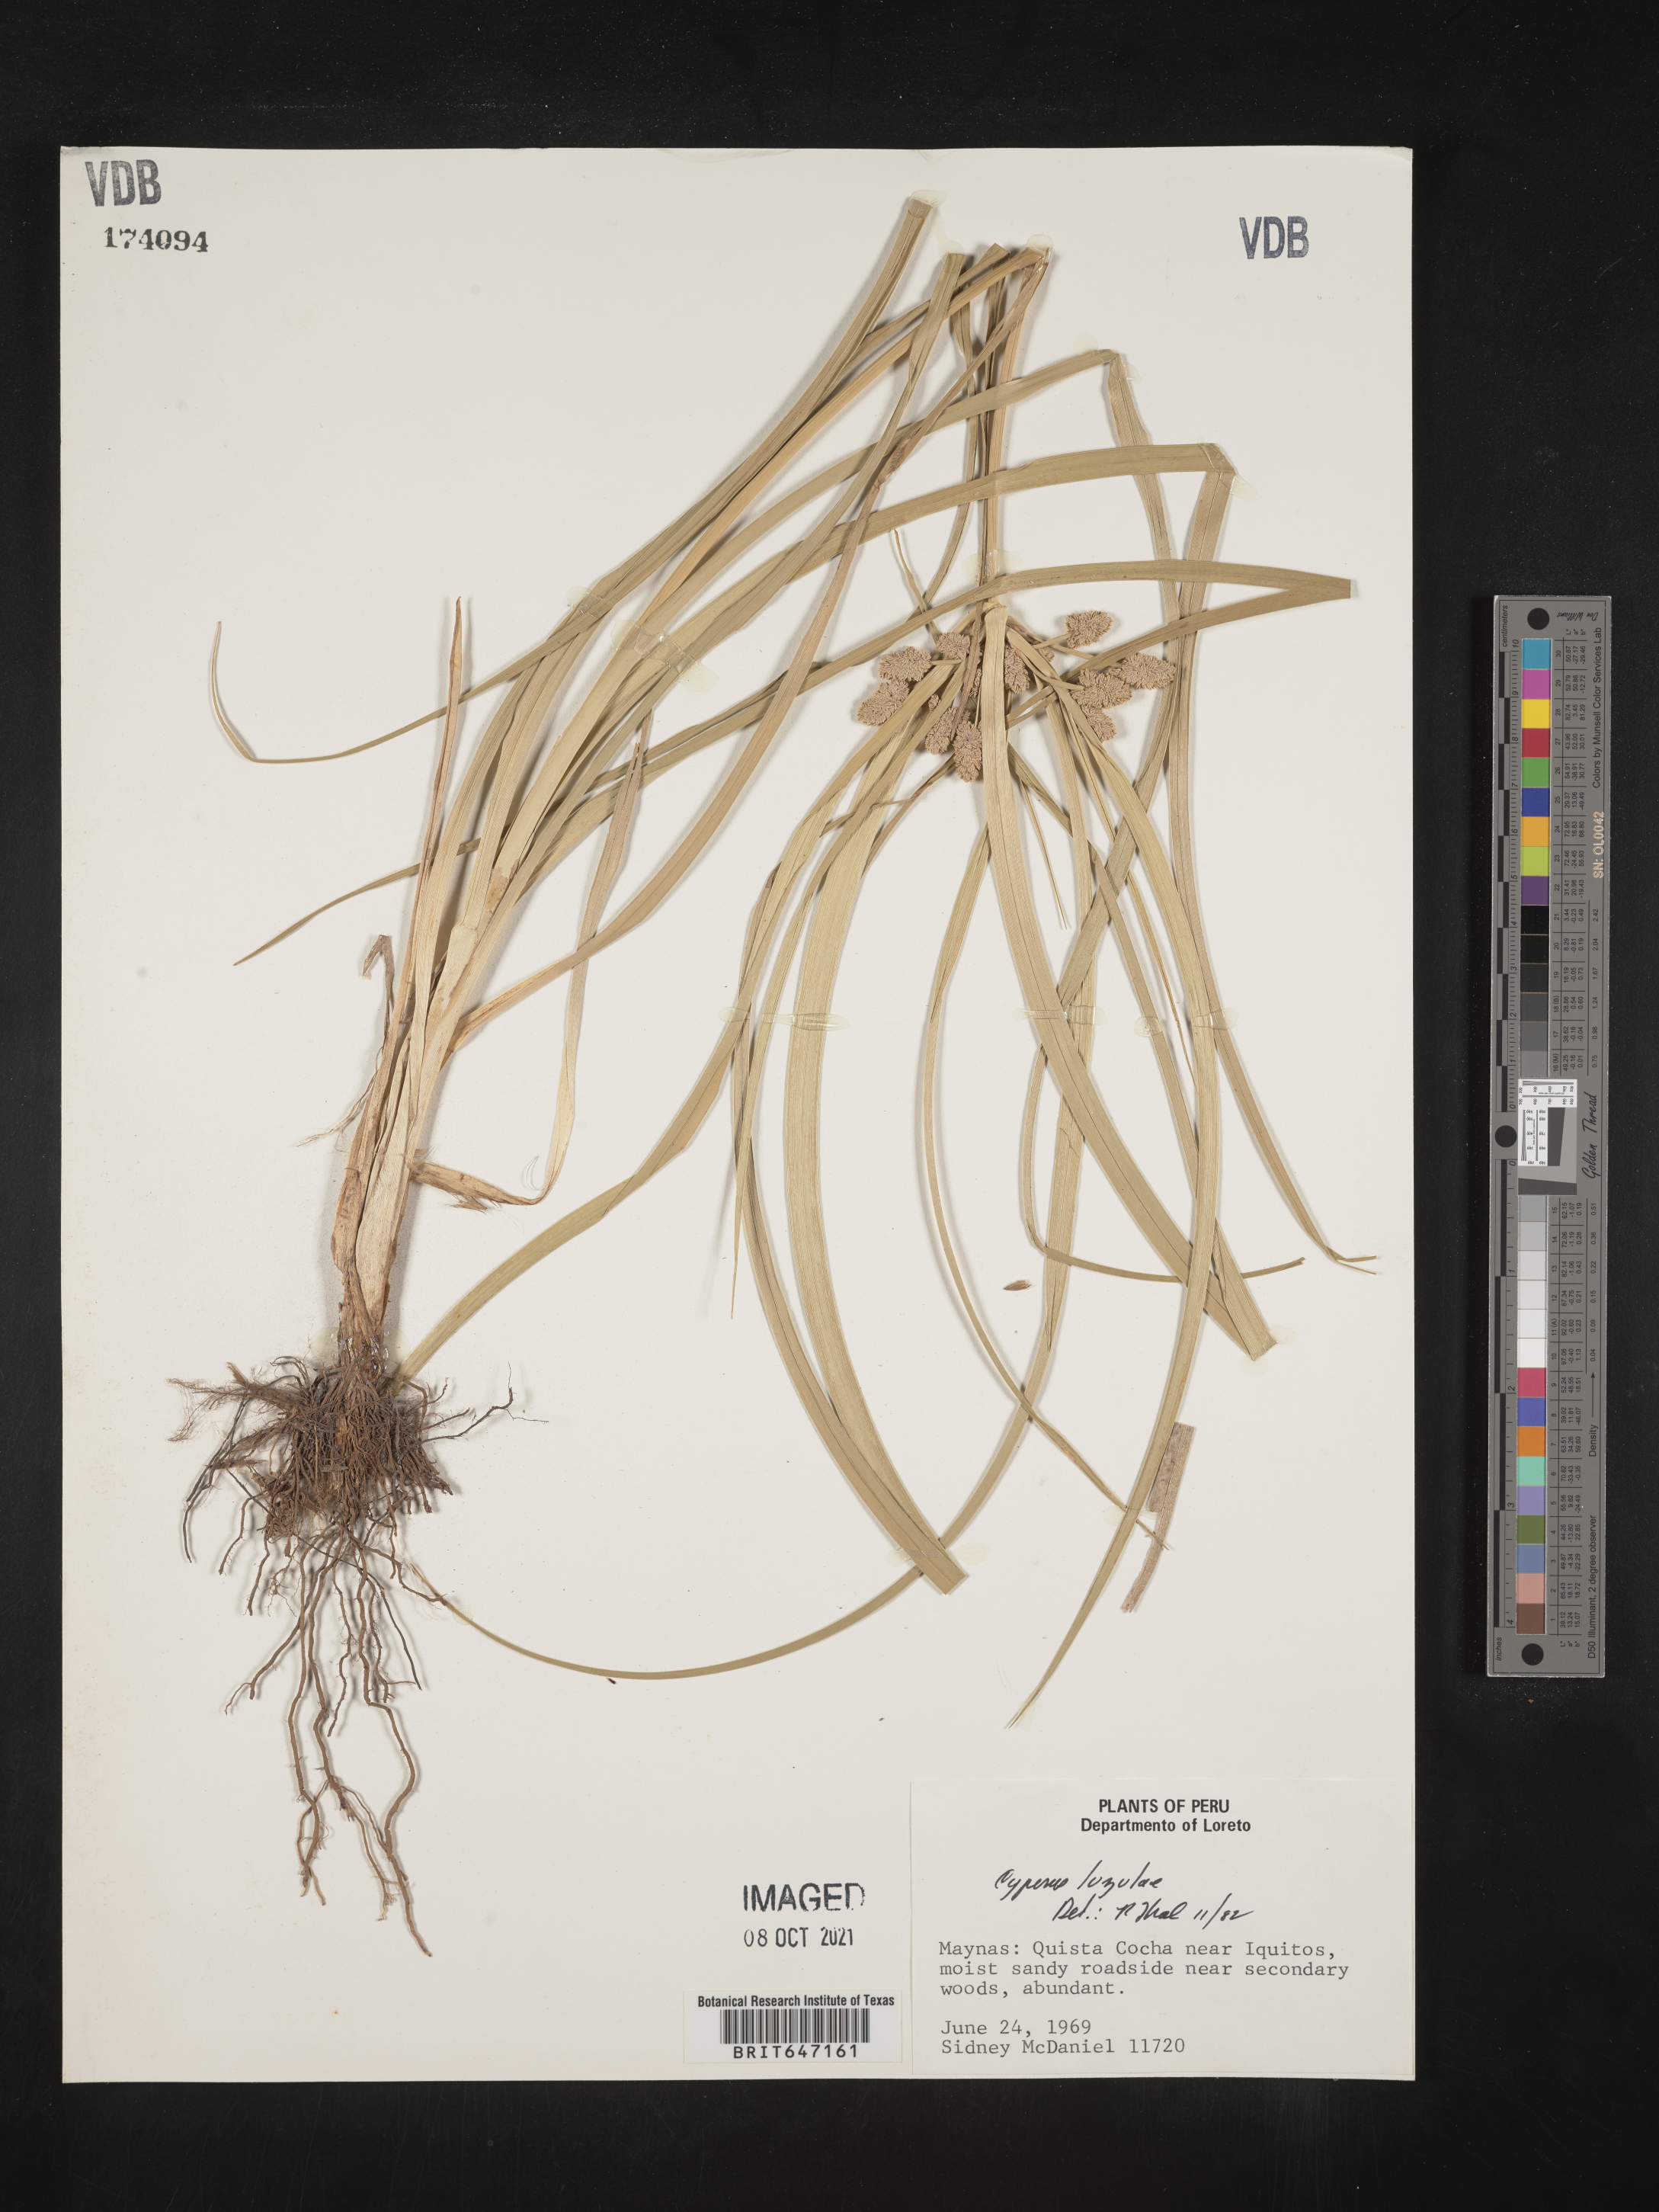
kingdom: Plantae
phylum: Tracheophyta
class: Liliopsida
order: Poales
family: Cyperaceae
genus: Cyperus
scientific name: Cyperus luzulae
